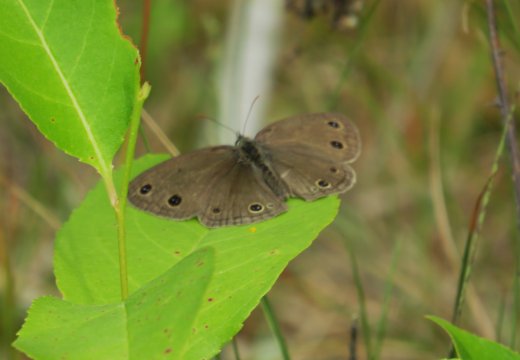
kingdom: Animalia
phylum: Arthropoda
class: Insecta
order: Lepidoptera
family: Nymphalidae
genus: Euptychia
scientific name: Euptychia cymela
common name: Little Wood Satyr
